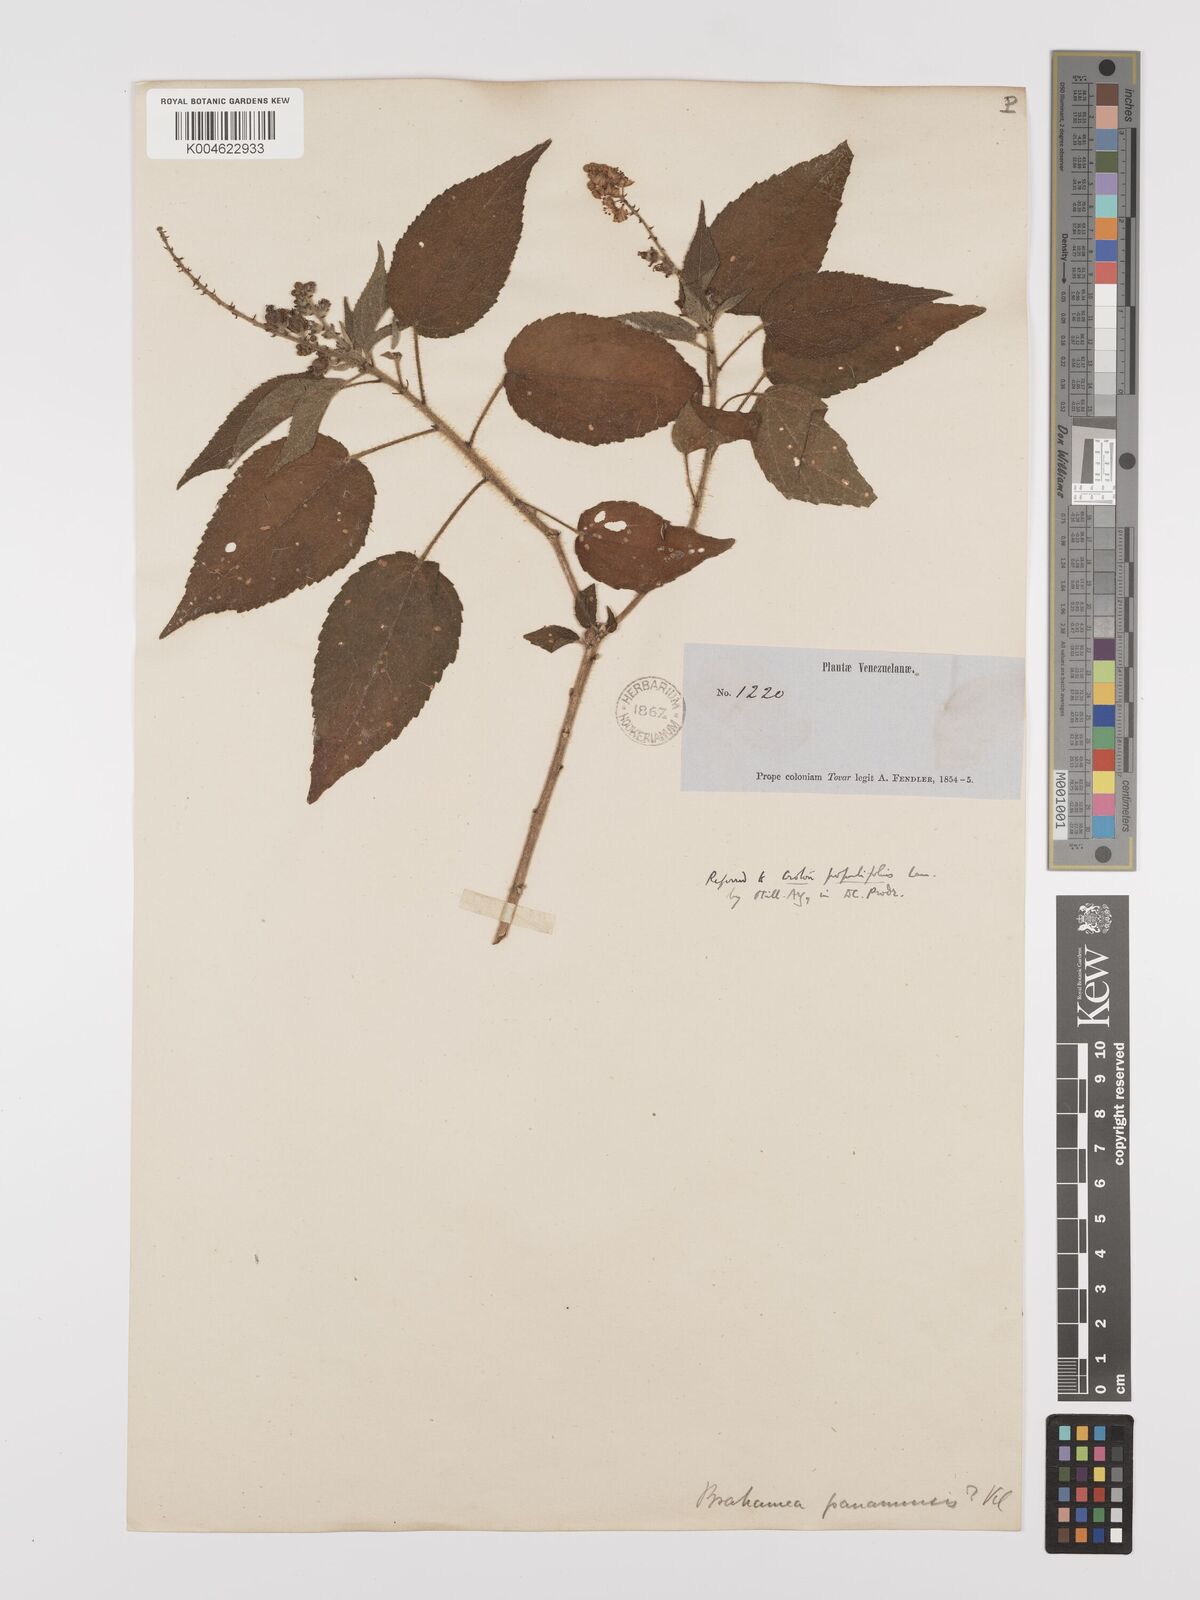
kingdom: Plantae
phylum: Tracheophyta
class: Magnoliopsida
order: Malpighiales
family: Euphorbiaceae
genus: Croton
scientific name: Croton
